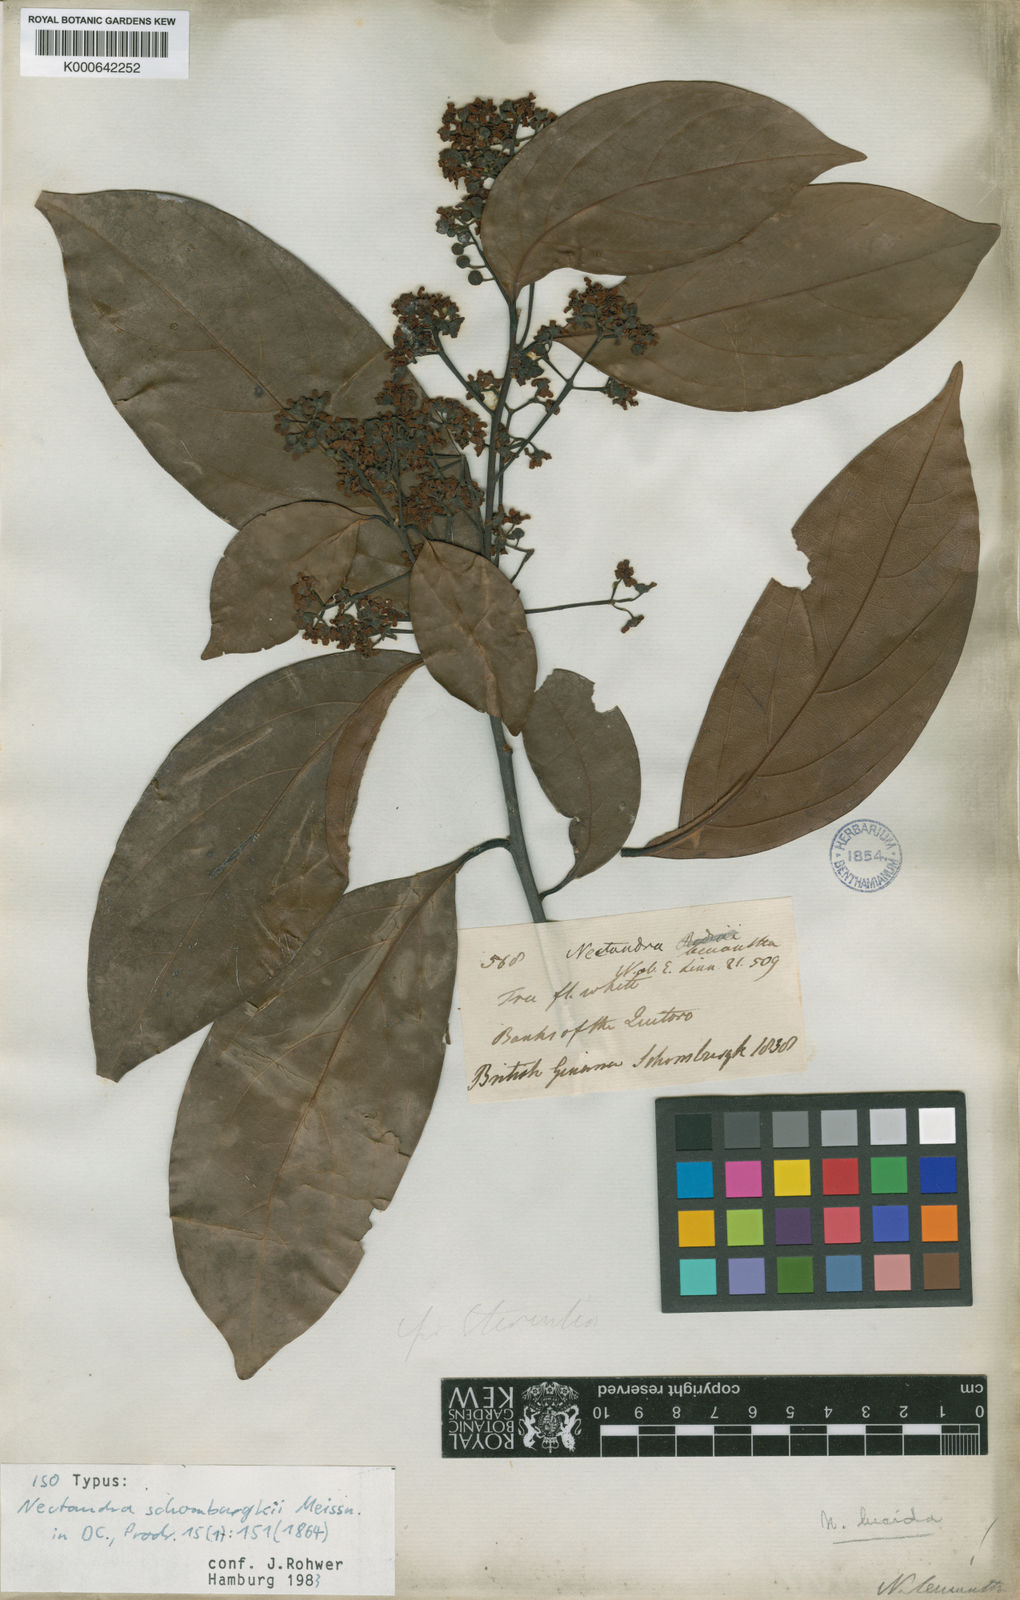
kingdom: Plantae
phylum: Tracheophyta
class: Magnoliopsida
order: Laurales
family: Lauraceae
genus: Endlicheria
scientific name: Endlicheria paniculata
